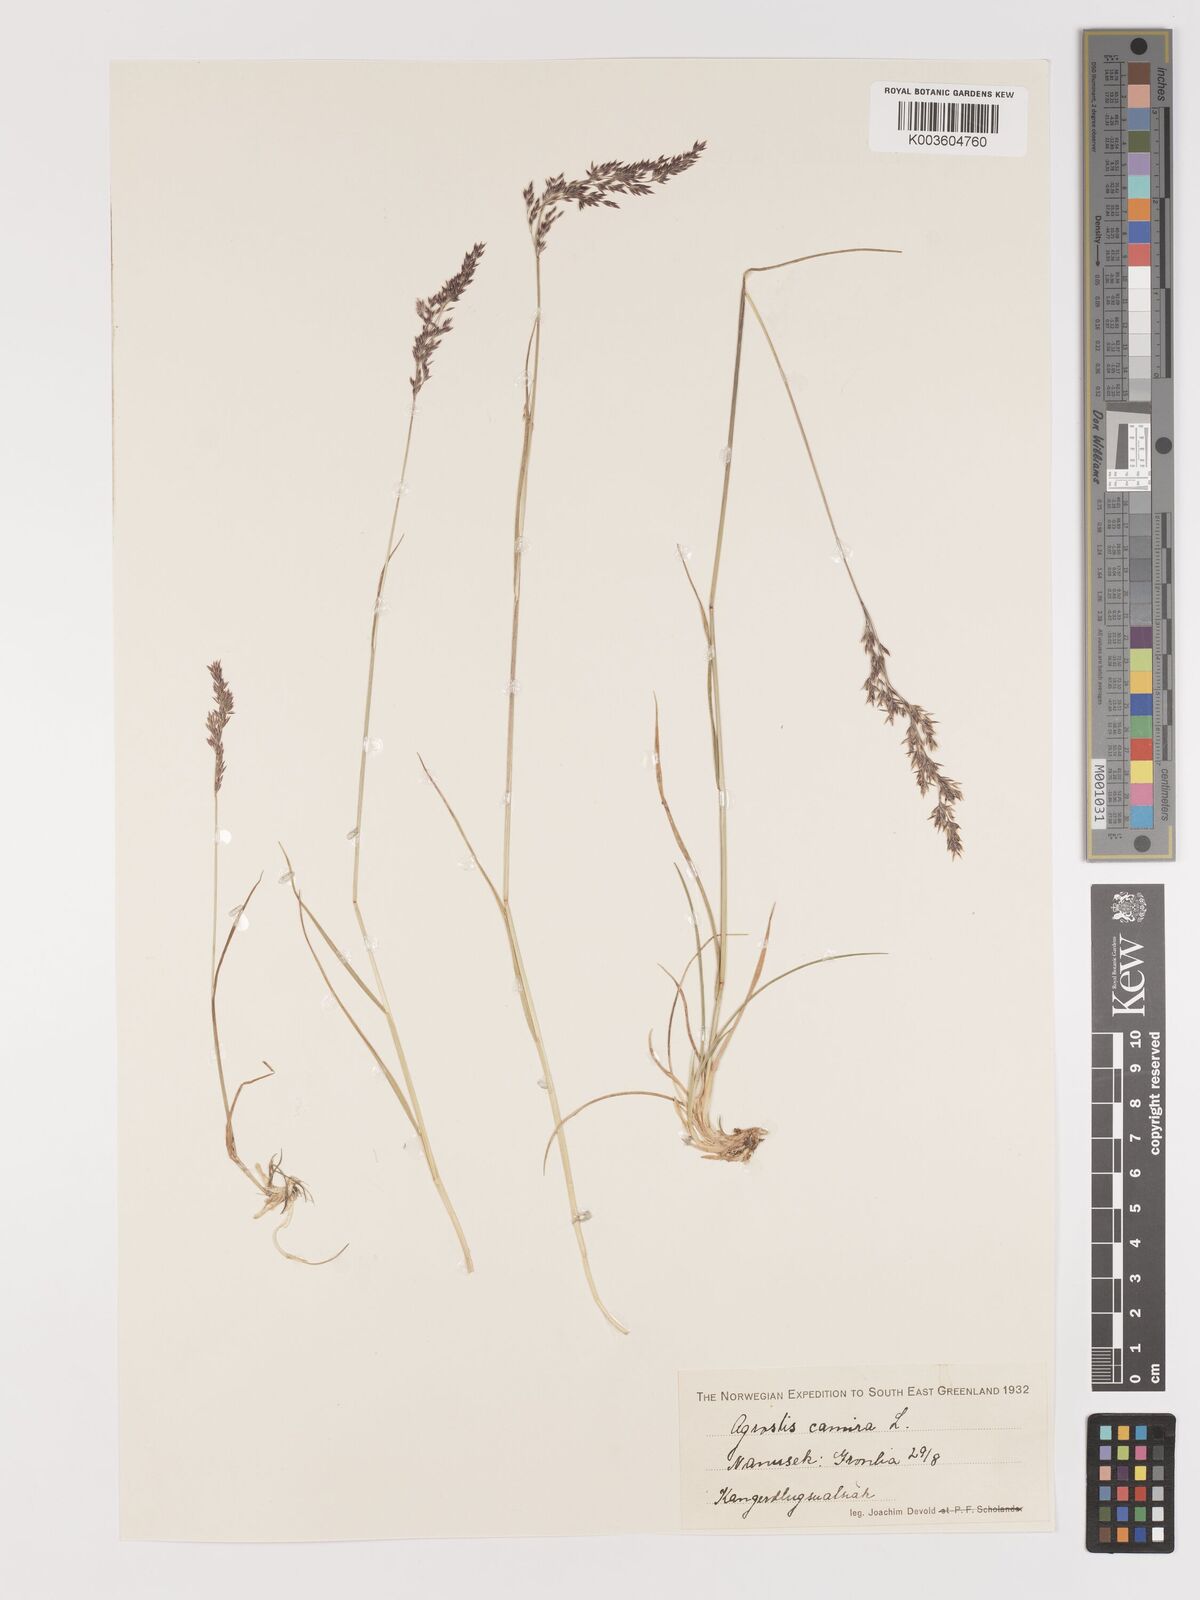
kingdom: Plantae
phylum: Tracheophyta
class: Liliopsida
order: Poales
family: Poaceae
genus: Agrostis
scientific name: Agrostis canina
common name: Velvet bent
